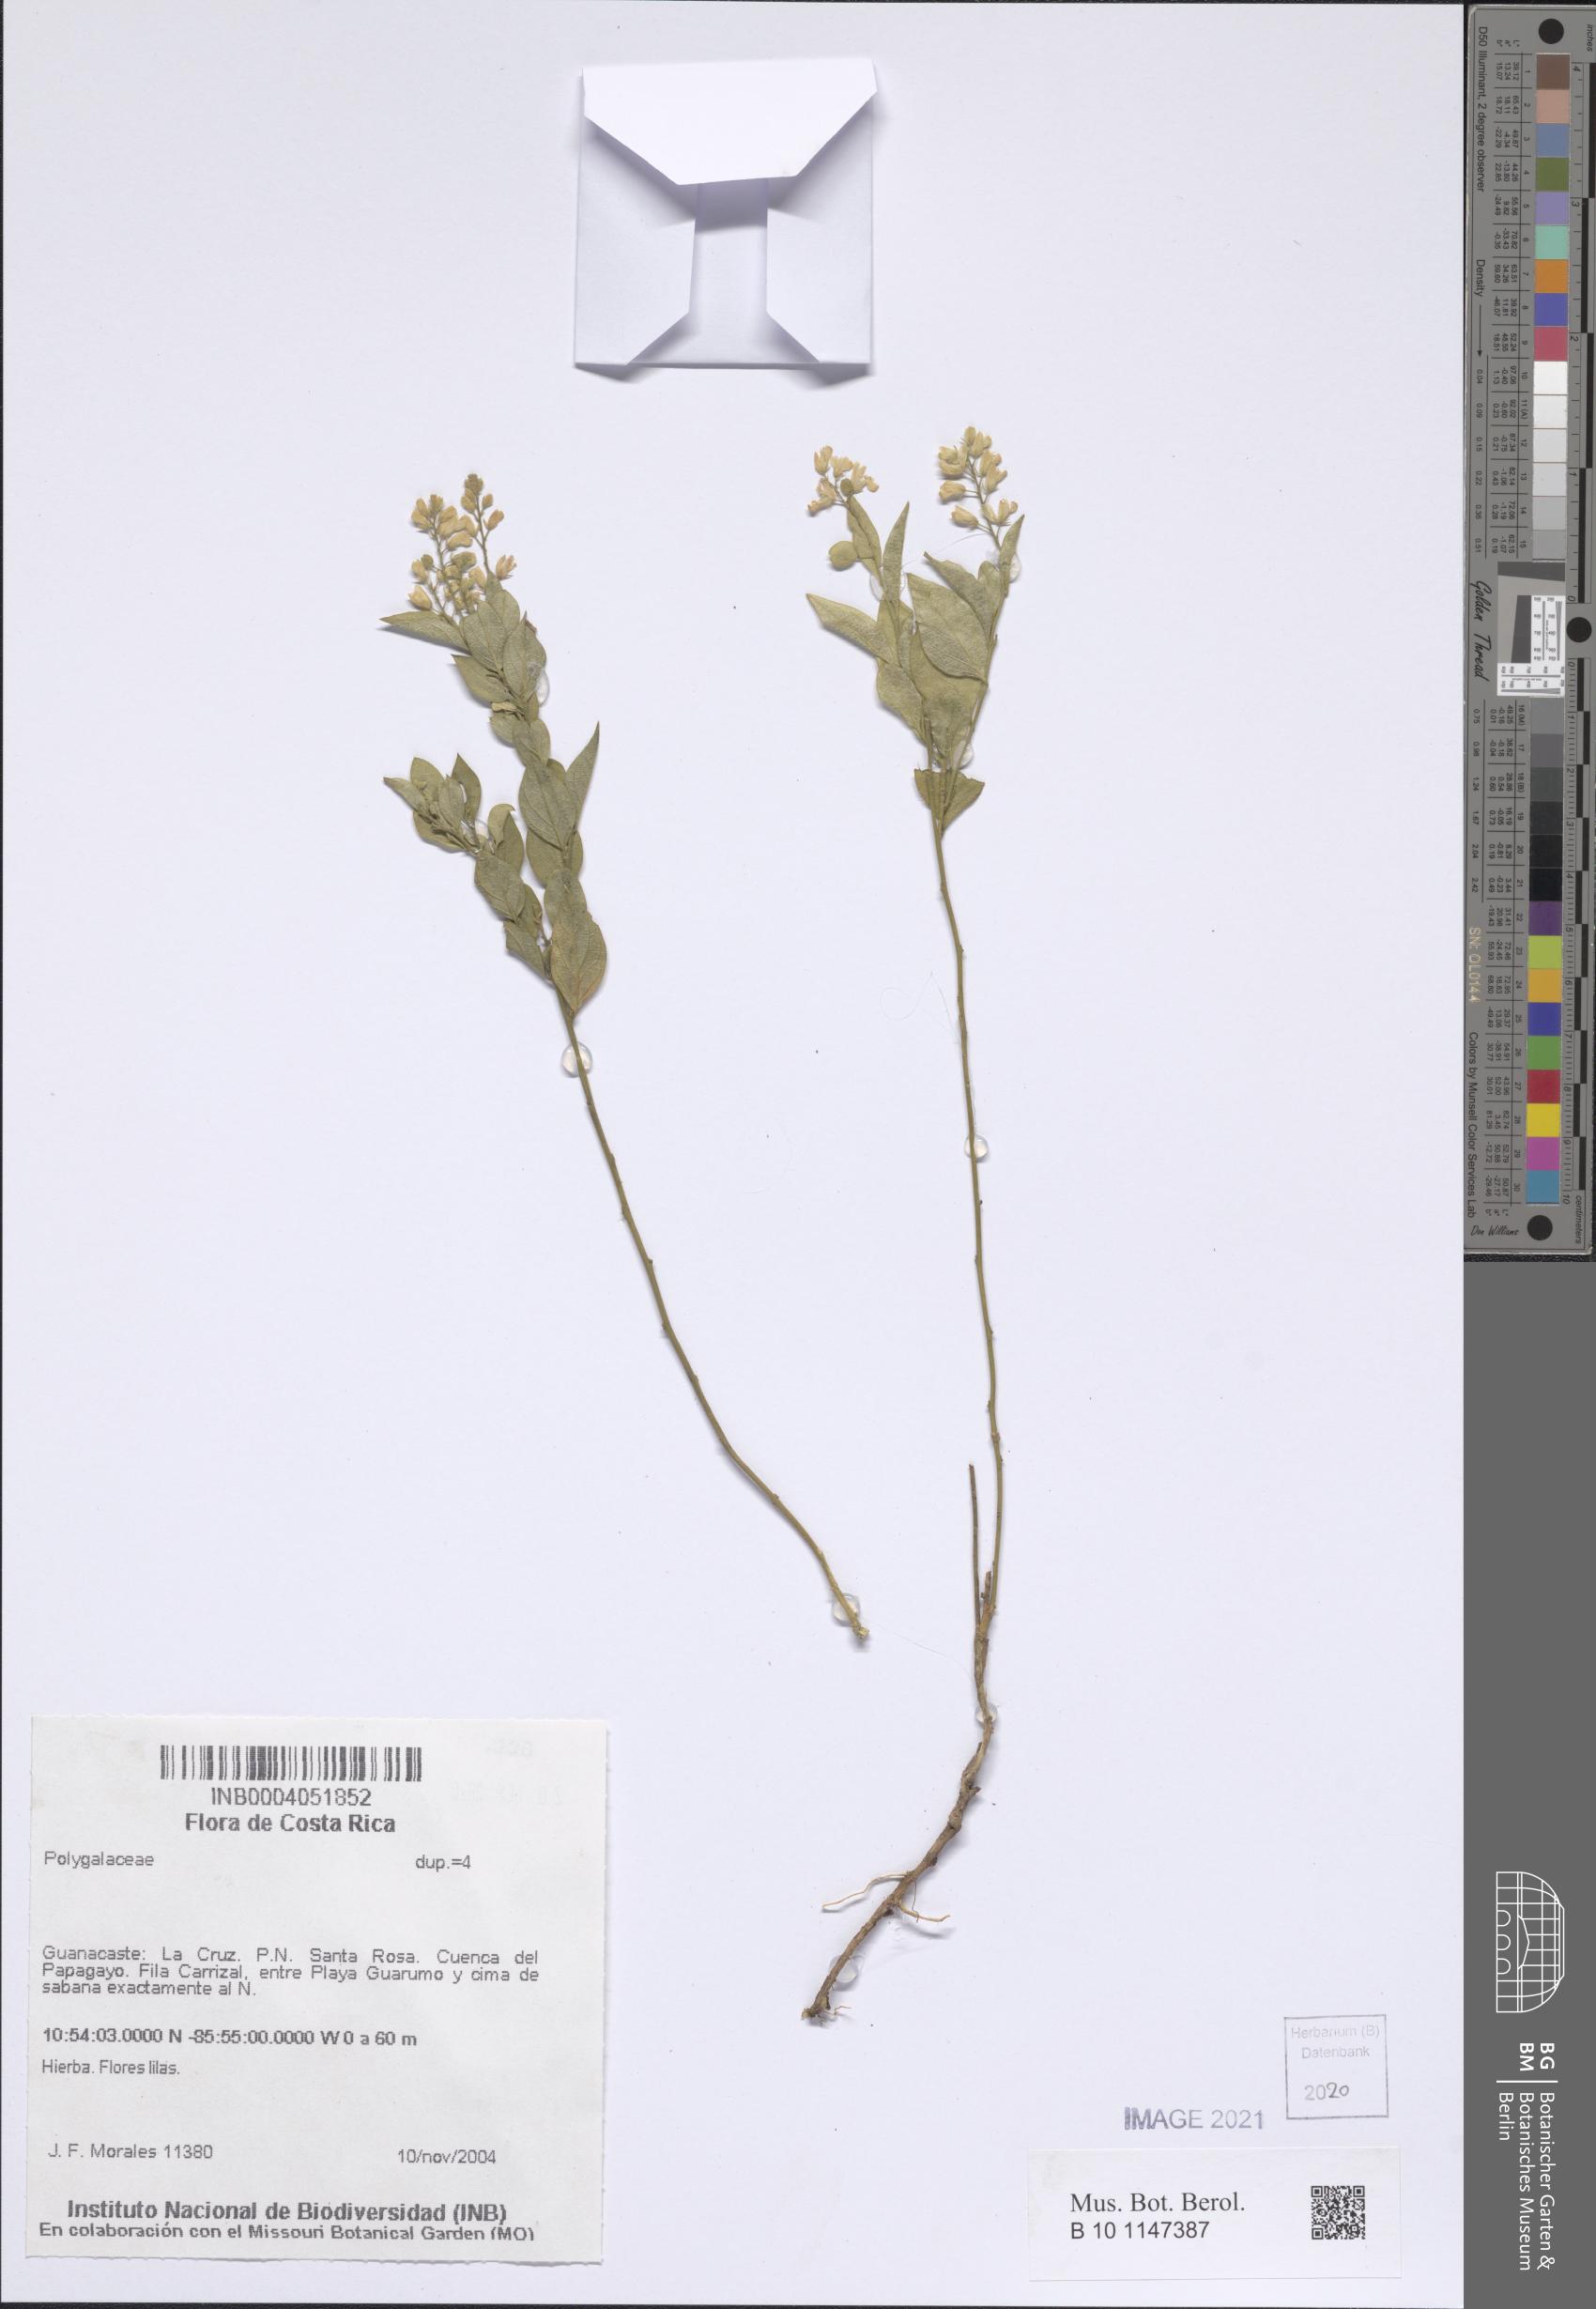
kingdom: Plantae
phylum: Tracheophyta
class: Magnoliopsida
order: Fabales
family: Polygalaceae
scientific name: Polygalaceae
